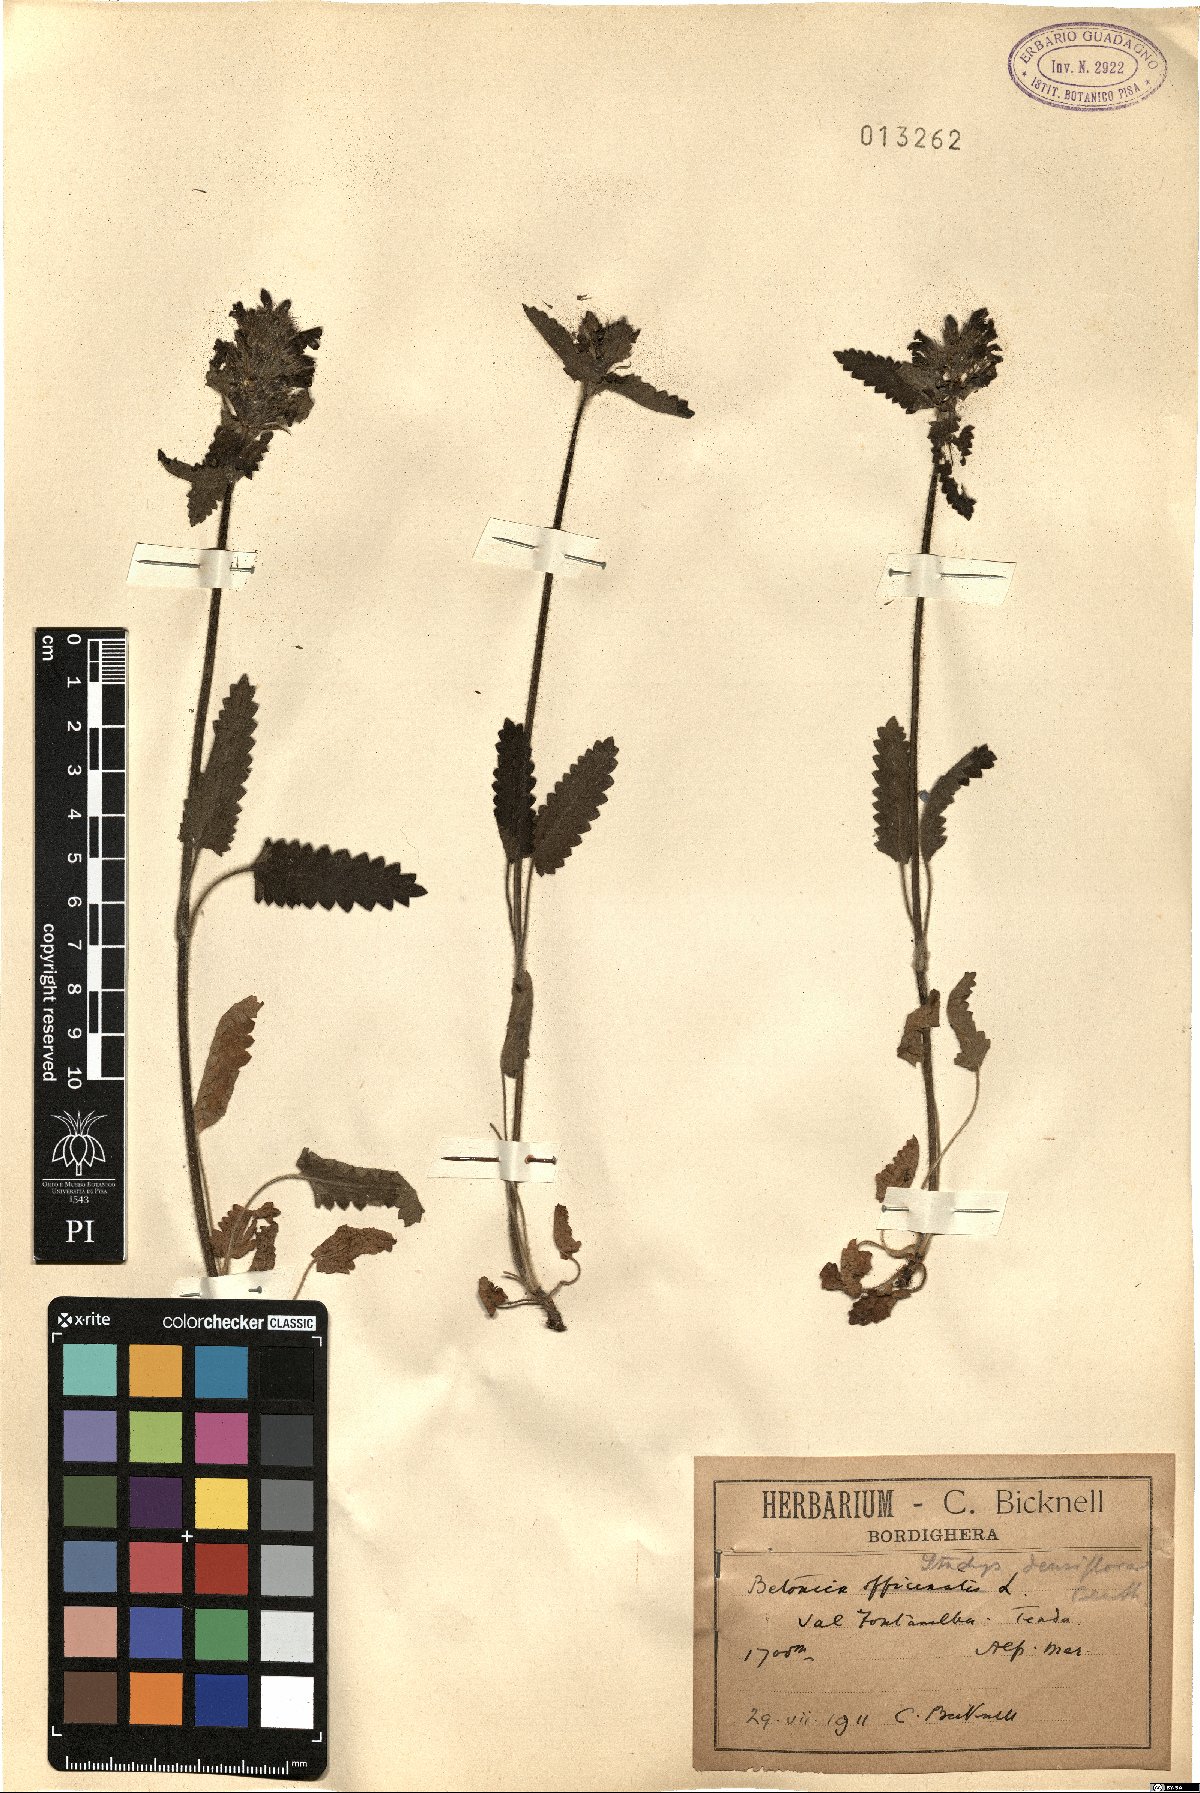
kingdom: Plantae
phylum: Tracheophyta
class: Magnoliopsida
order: Lamiales
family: Lamiaceae
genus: Betonica
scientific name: Betonica officinalis
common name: Bishop's-wort
